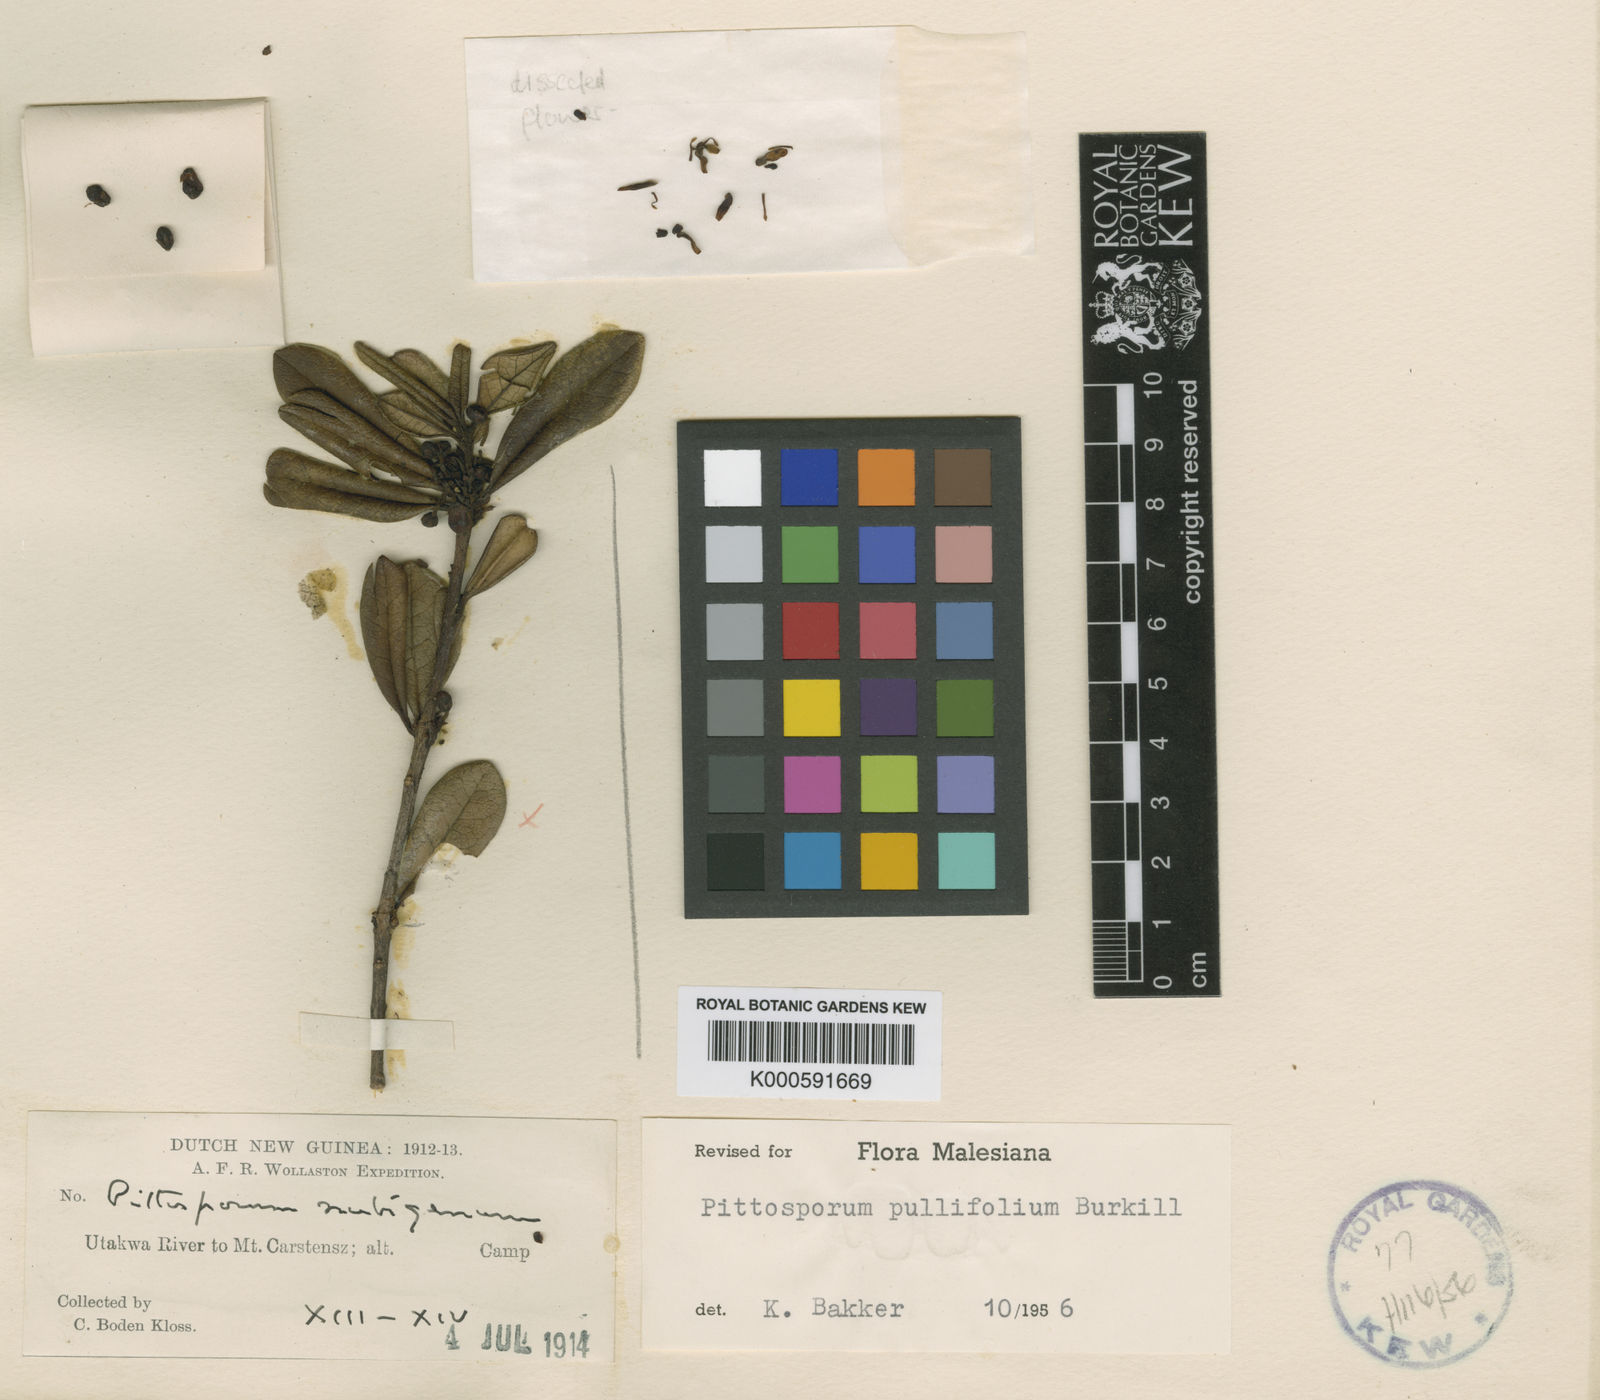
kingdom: Plantae
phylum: Tracheophyta
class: Magnoliopsida
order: Apiales
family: Pittosporaceae
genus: Pittosporum
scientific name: Pittosporum pullifolium
